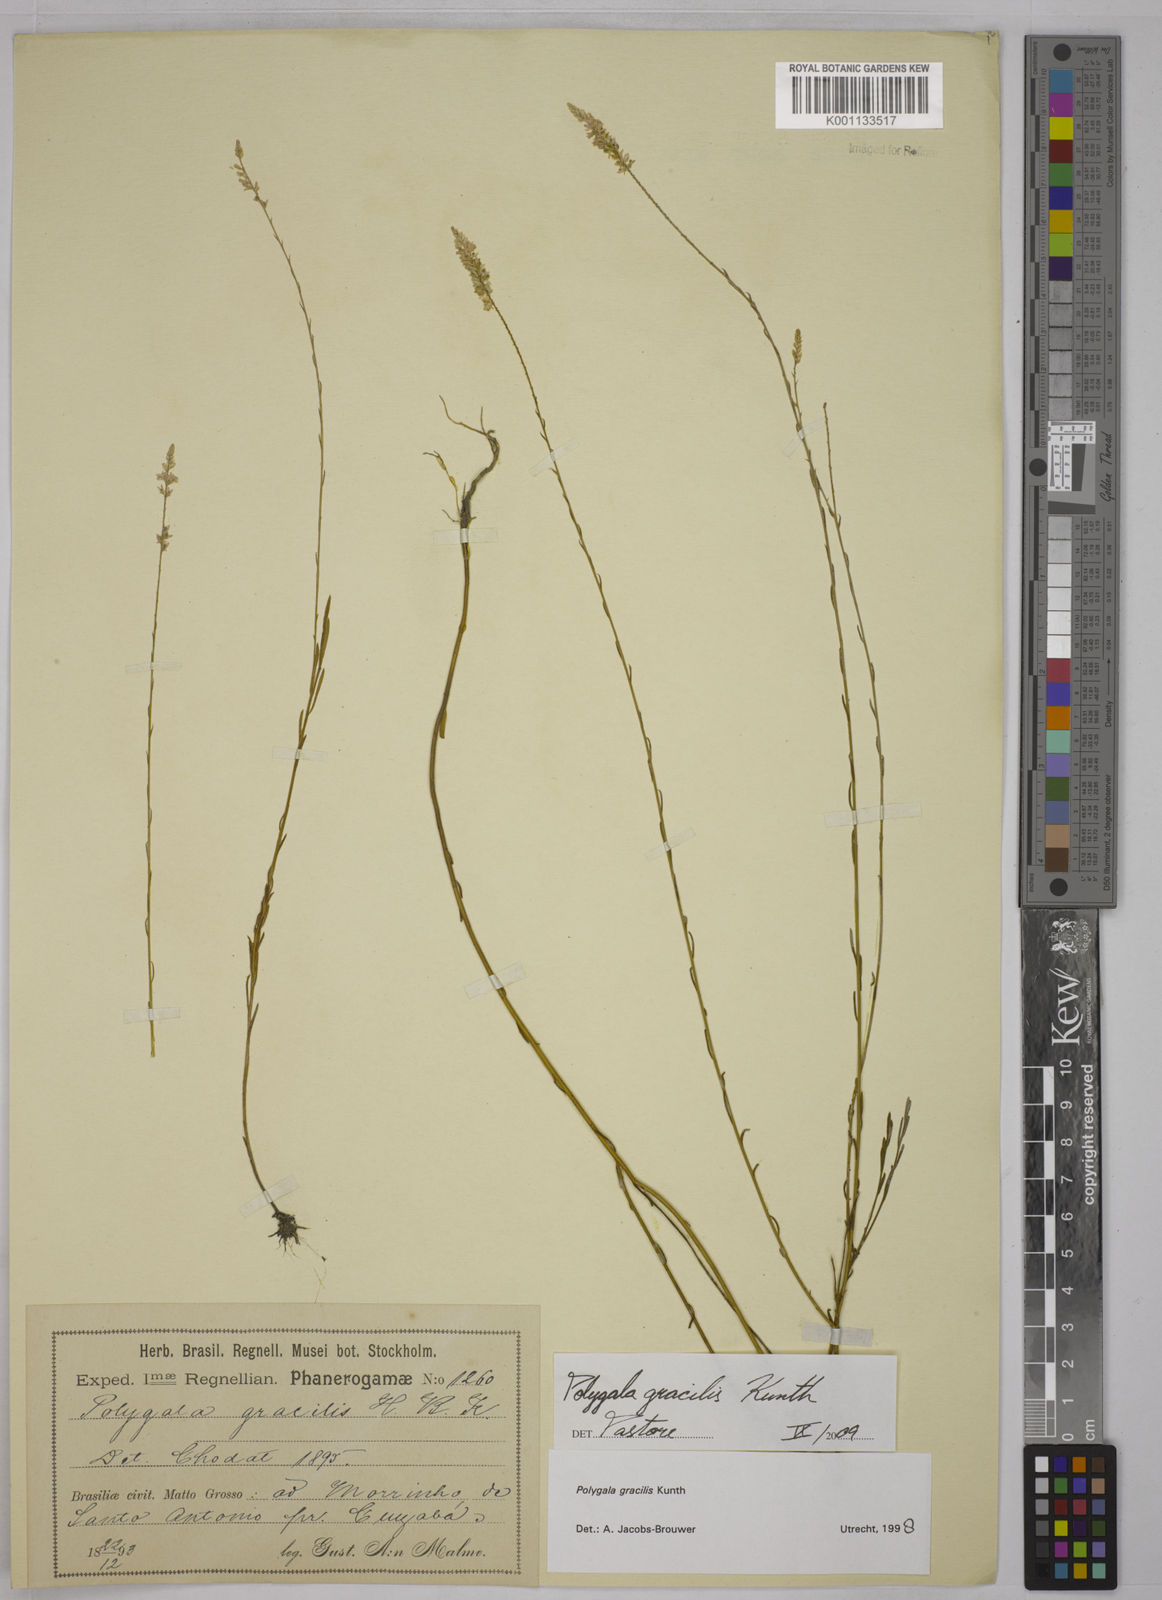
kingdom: Plantae
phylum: Tracheophyta
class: Magnoliopsida
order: Fabales
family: Polygalaceae
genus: Polygala
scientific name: Polygala gracilis
